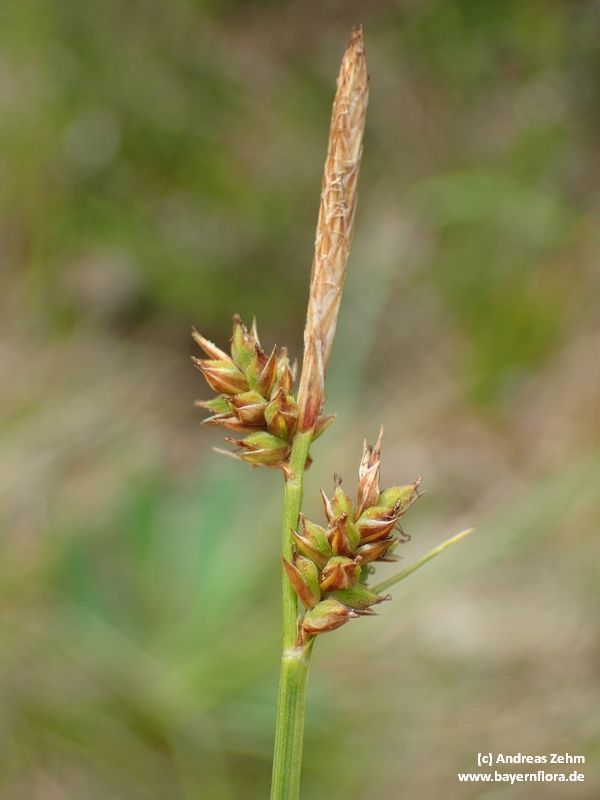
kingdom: Plantae
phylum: Tracheophyta
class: Liliopsida
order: Poales
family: Cyperaceae
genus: Carex
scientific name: Carex pilulifera
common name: Pill sedge
